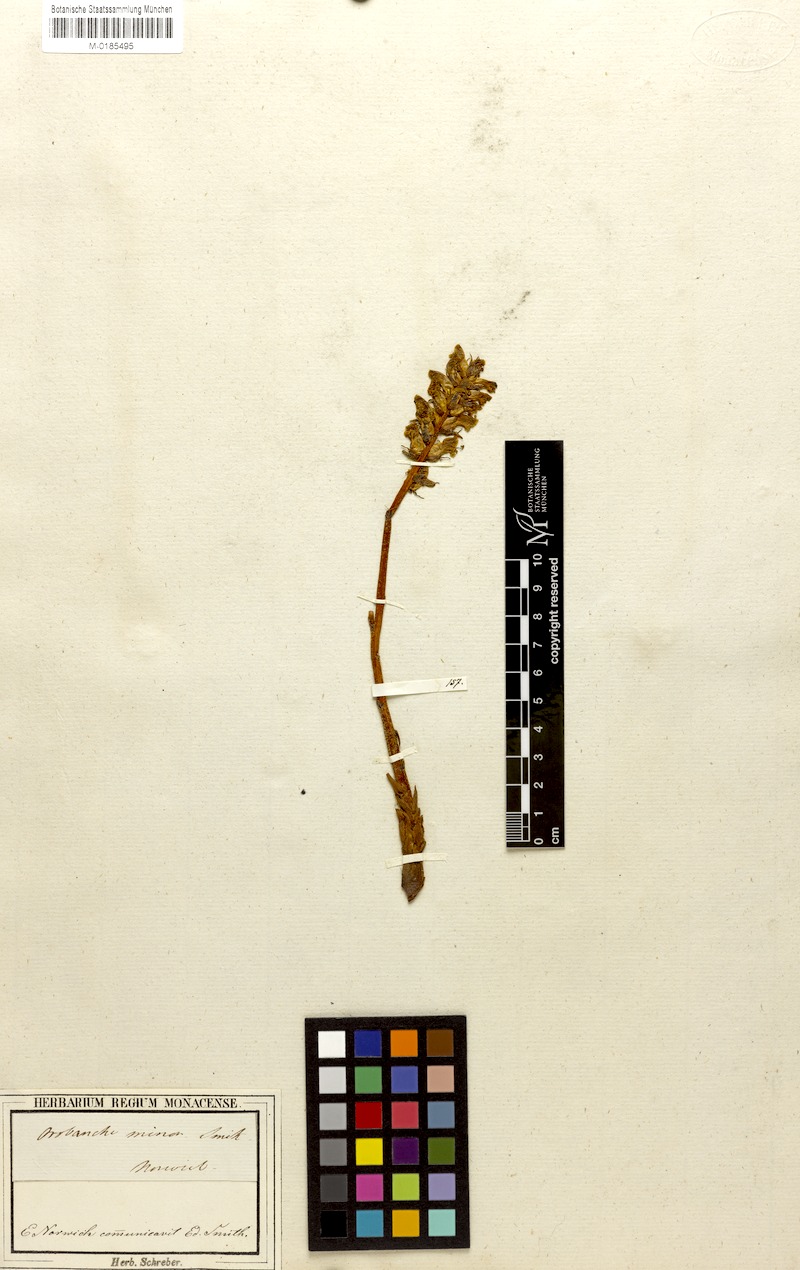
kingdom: Plantae
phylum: Tracheophyta
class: Magnoliopsida
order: Lamiales
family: Orobanchaceae
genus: Orobanche
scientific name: Orobanche minor
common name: Common broomrape
